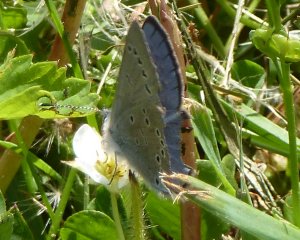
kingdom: Animalia
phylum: Arthropoda
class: Insecta
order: Lepidoptera
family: Lycaenidae
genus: Glaucopsyche
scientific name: Glaucopsyche lygdamus
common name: Silvery Blue
